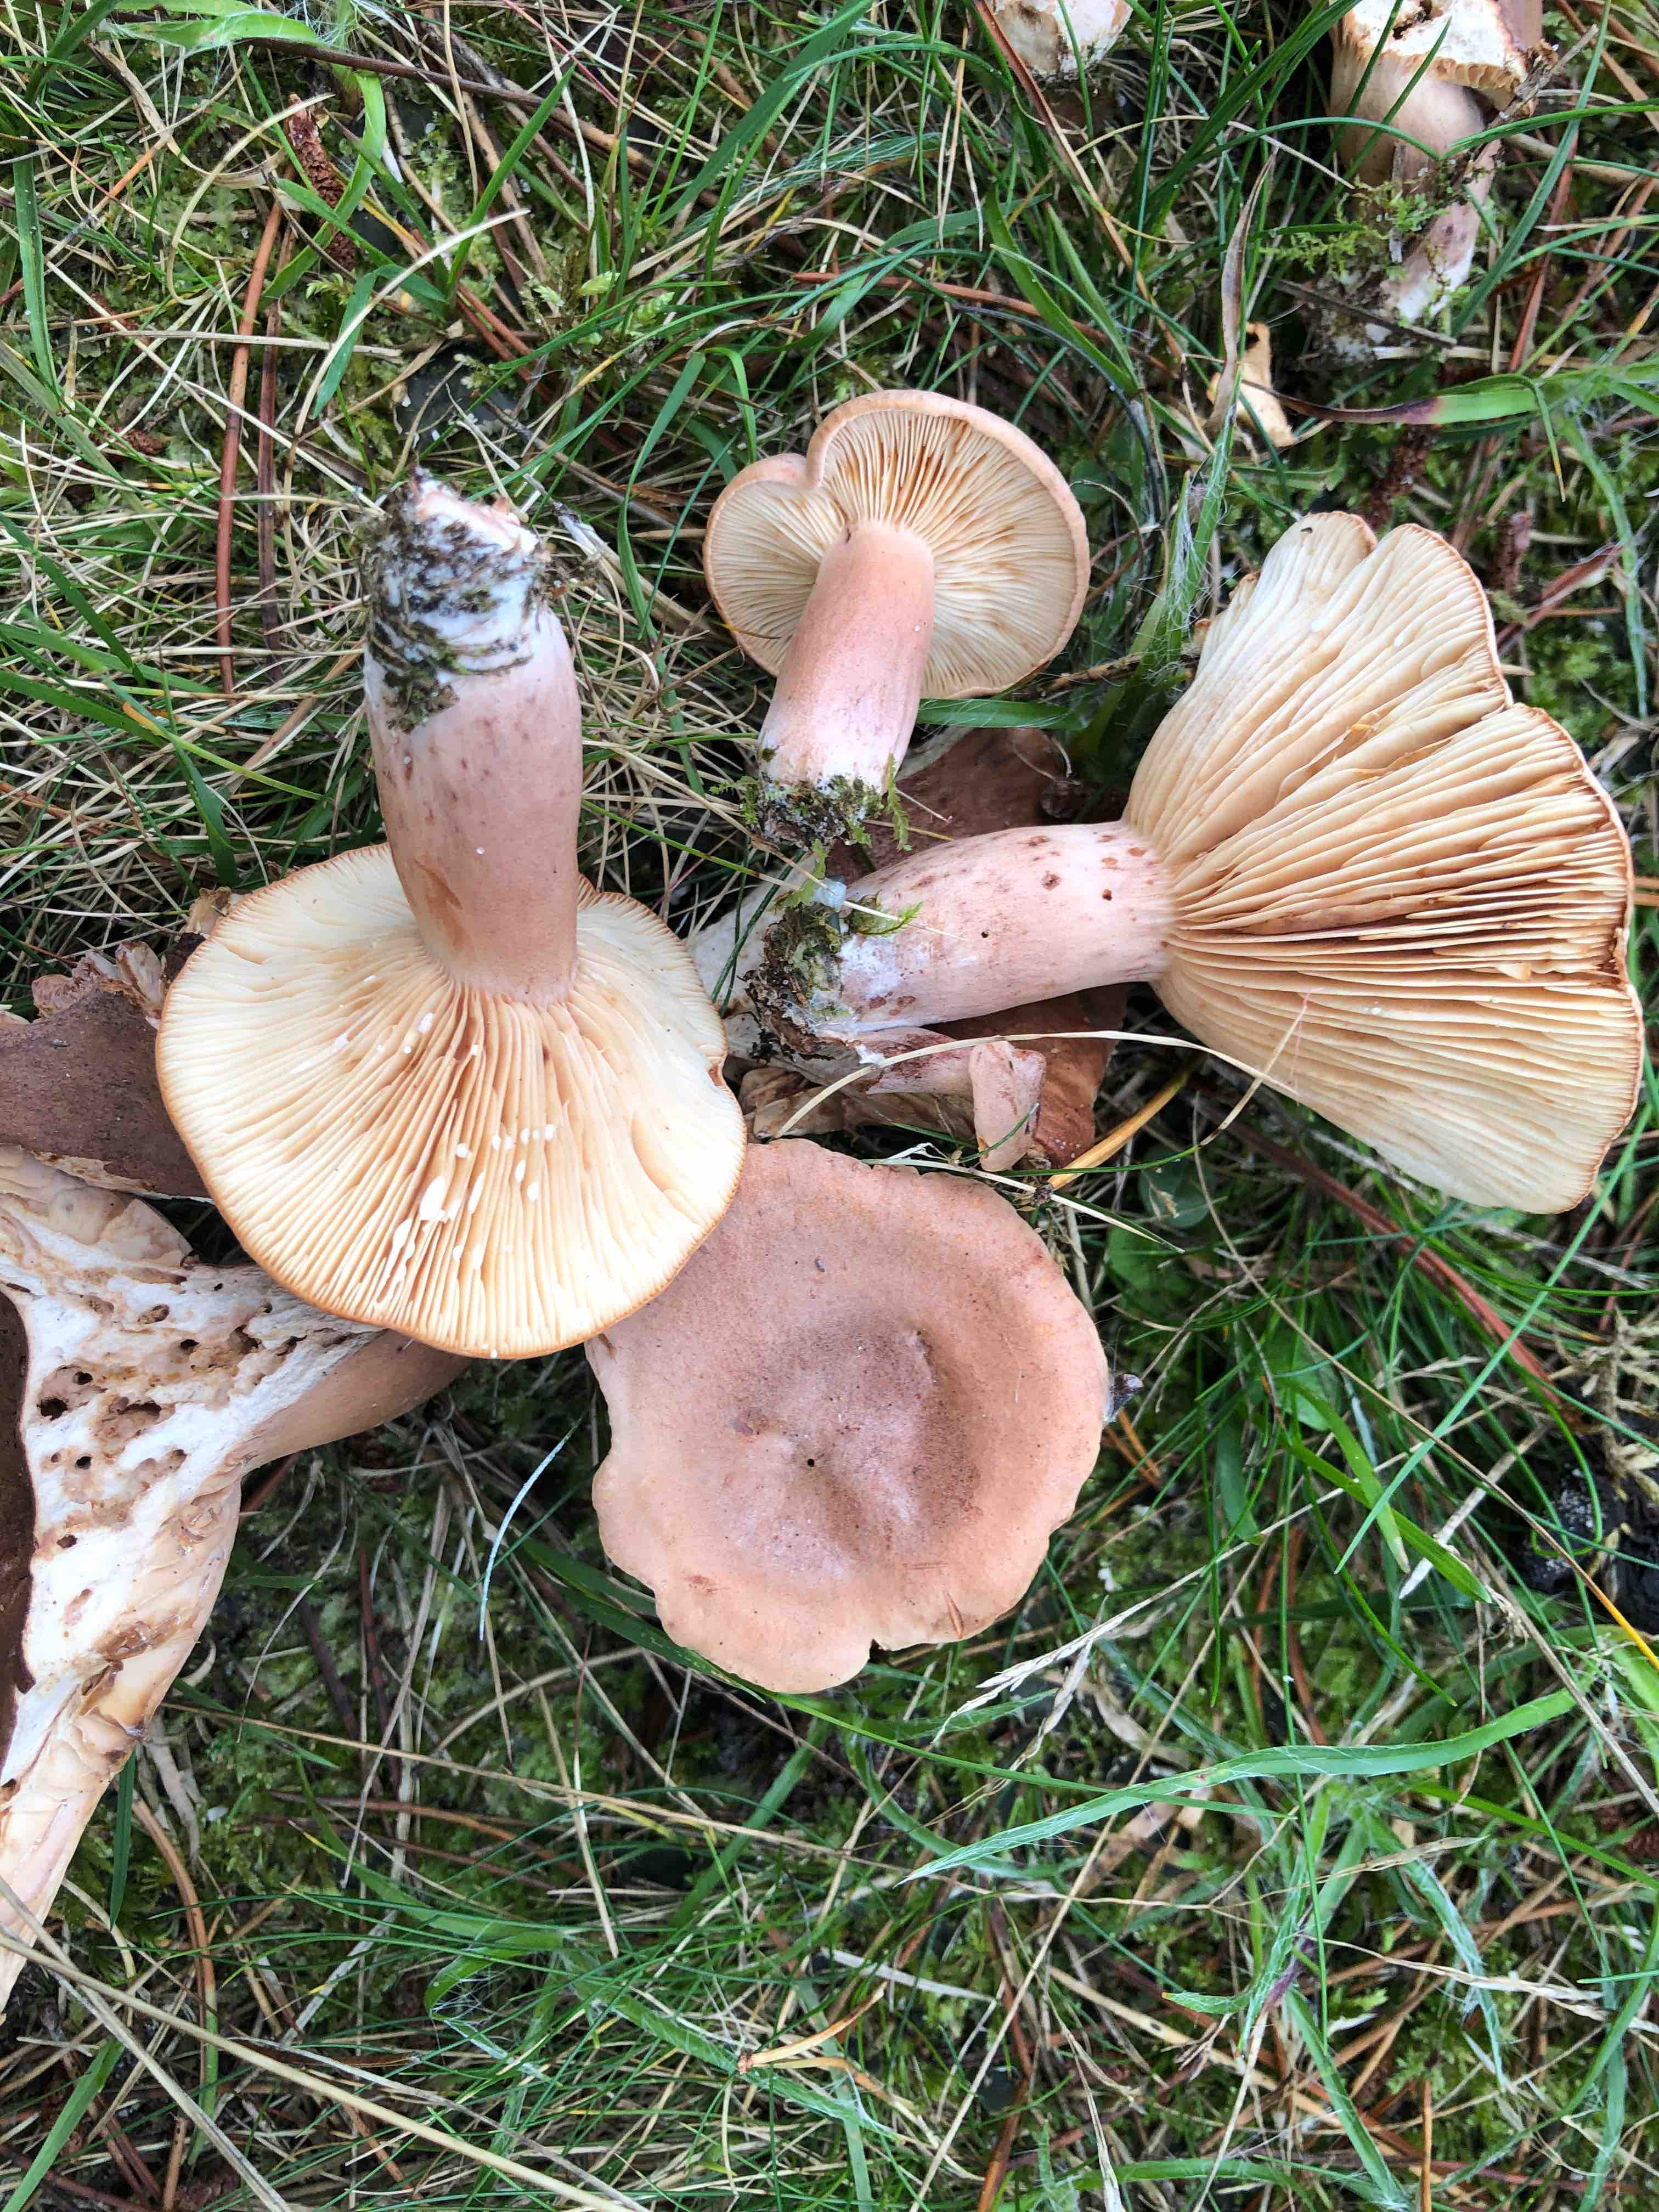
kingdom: Fungi
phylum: Basidiomycota
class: Agaricomycetes
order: Russulales
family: Russulaceae
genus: Lactarius
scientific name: Lactarius rufus
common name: rødbrun mælkehat
